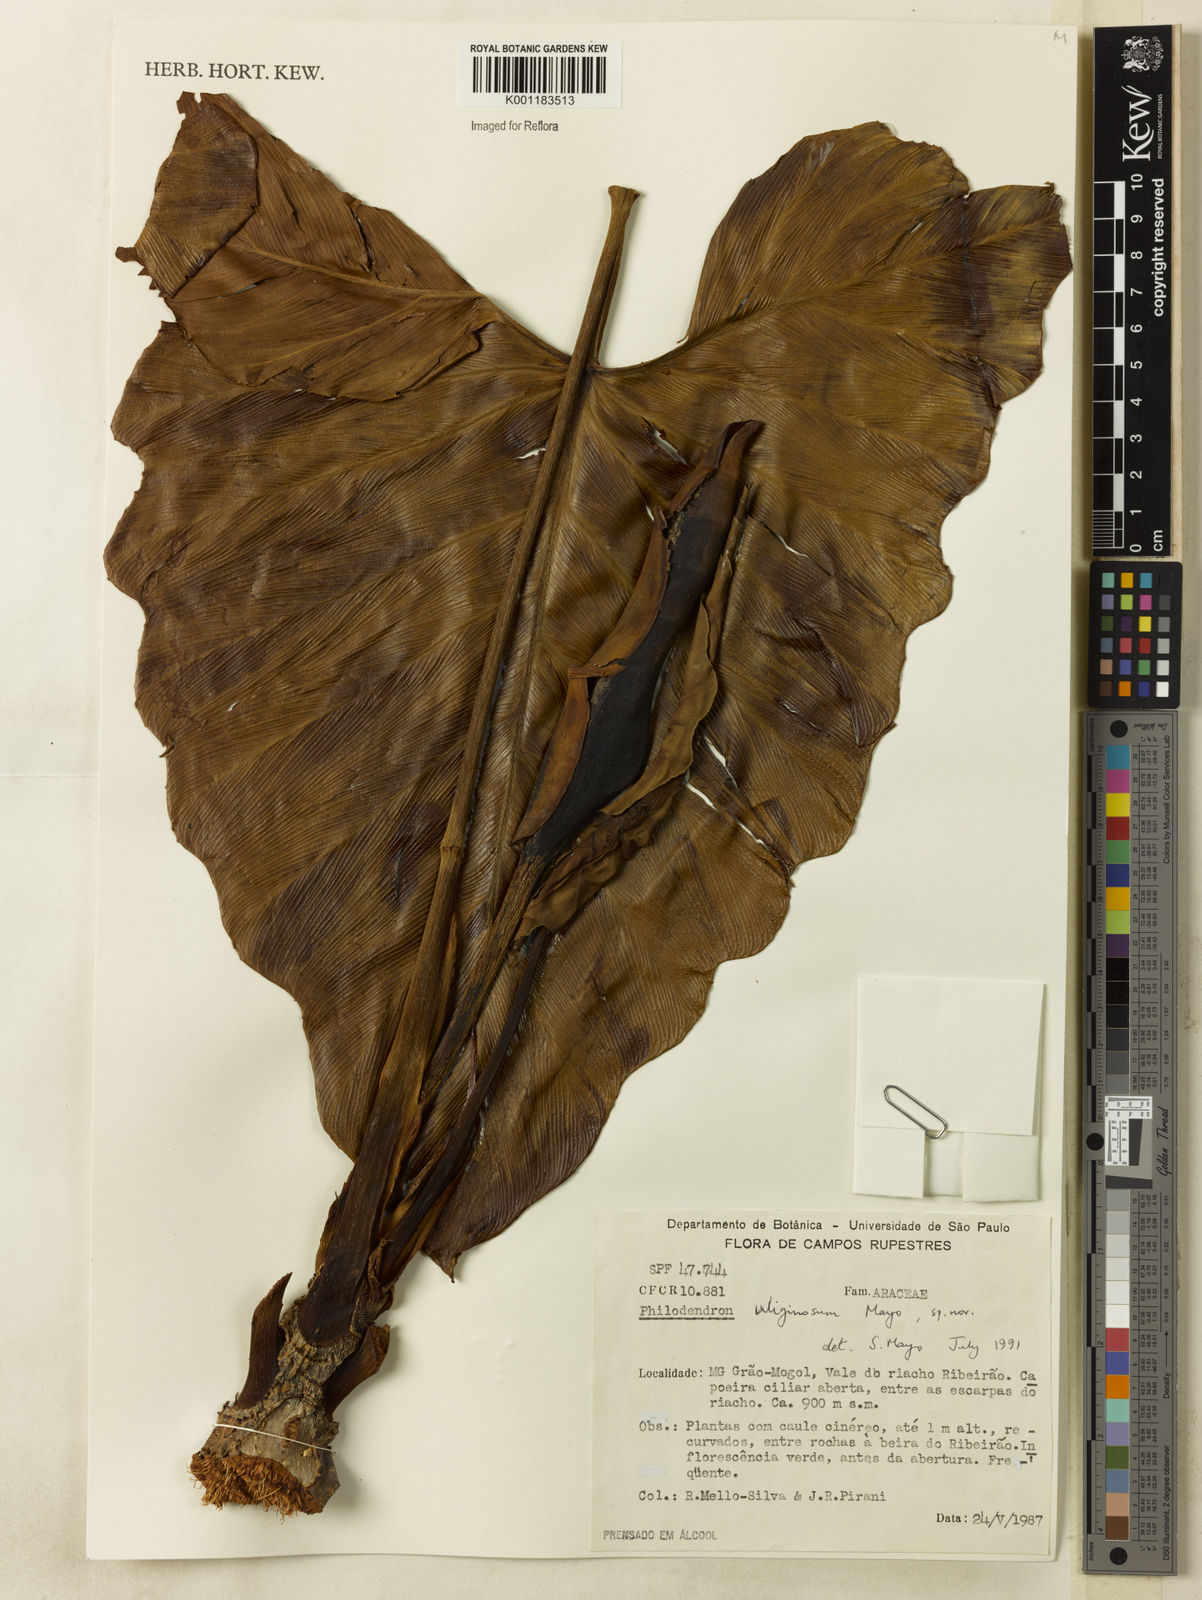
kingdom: Plantae
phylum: Tracheophyta
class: Liliopsida
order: Alismatales
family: Araceae
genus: Thaumatophyllum
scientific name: Thaumatophyllum uliginosum
